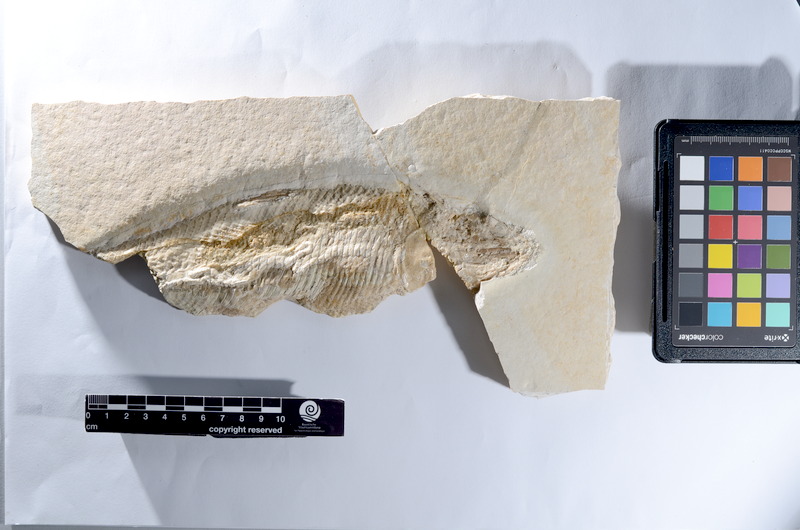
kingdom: Animalia
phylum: Chordata
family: Pholidophoridae
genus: Pholidophorus
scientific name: Pholidophorus
